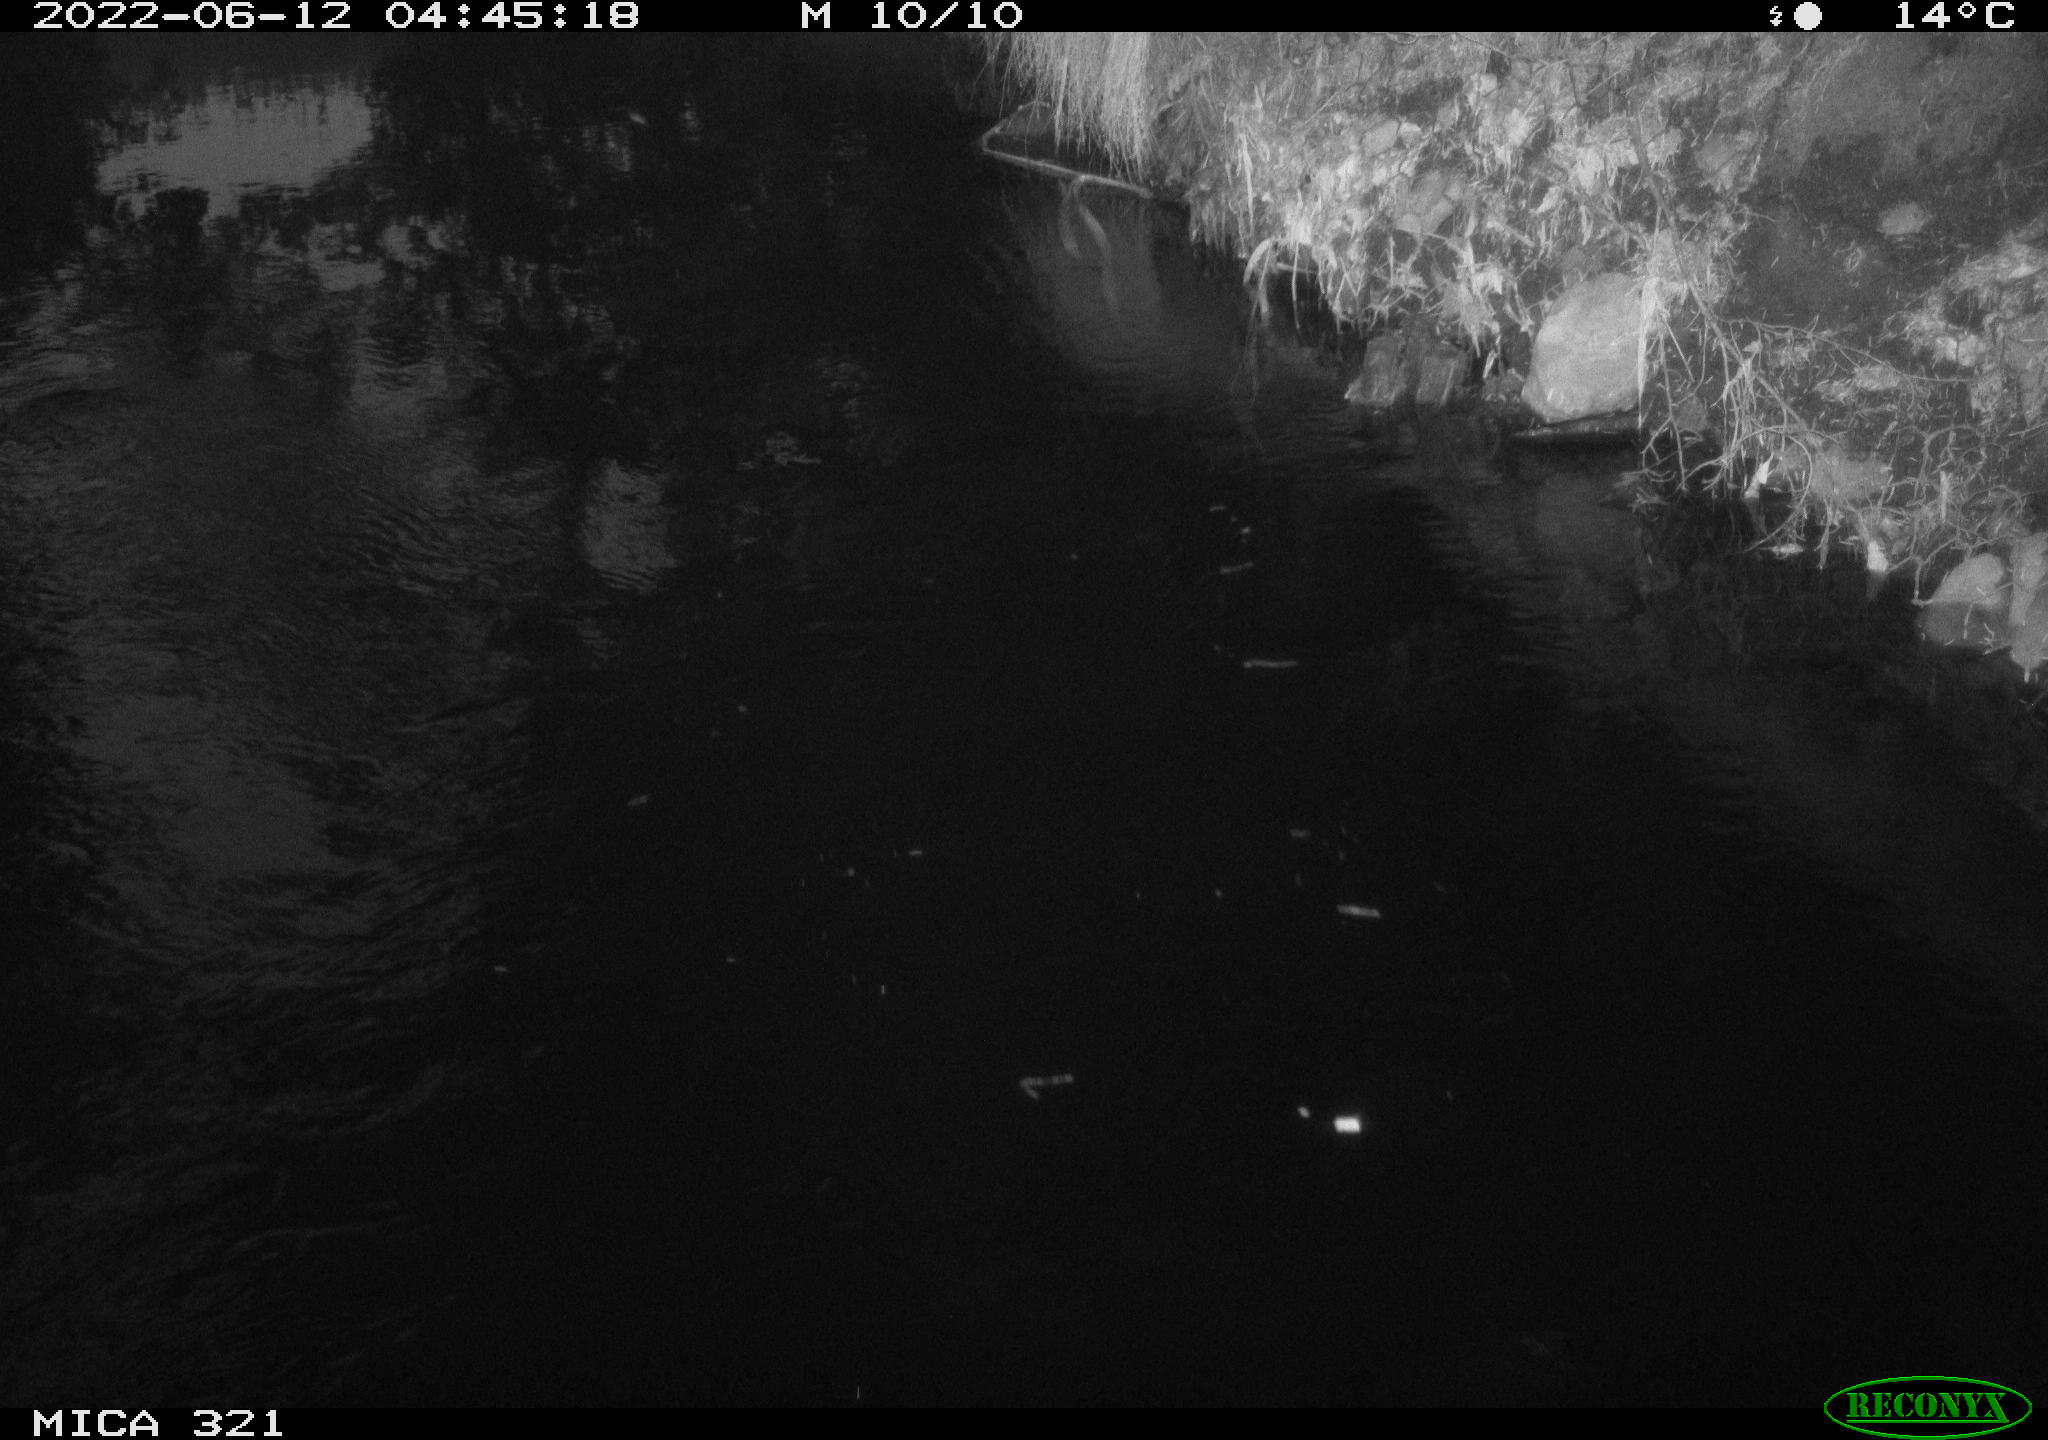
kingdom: Animalia
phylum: Chordata
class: Aves
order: Anseriformes
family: Anatidae
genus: Anas
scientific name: Anas platyrhynchos
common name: Mallard
